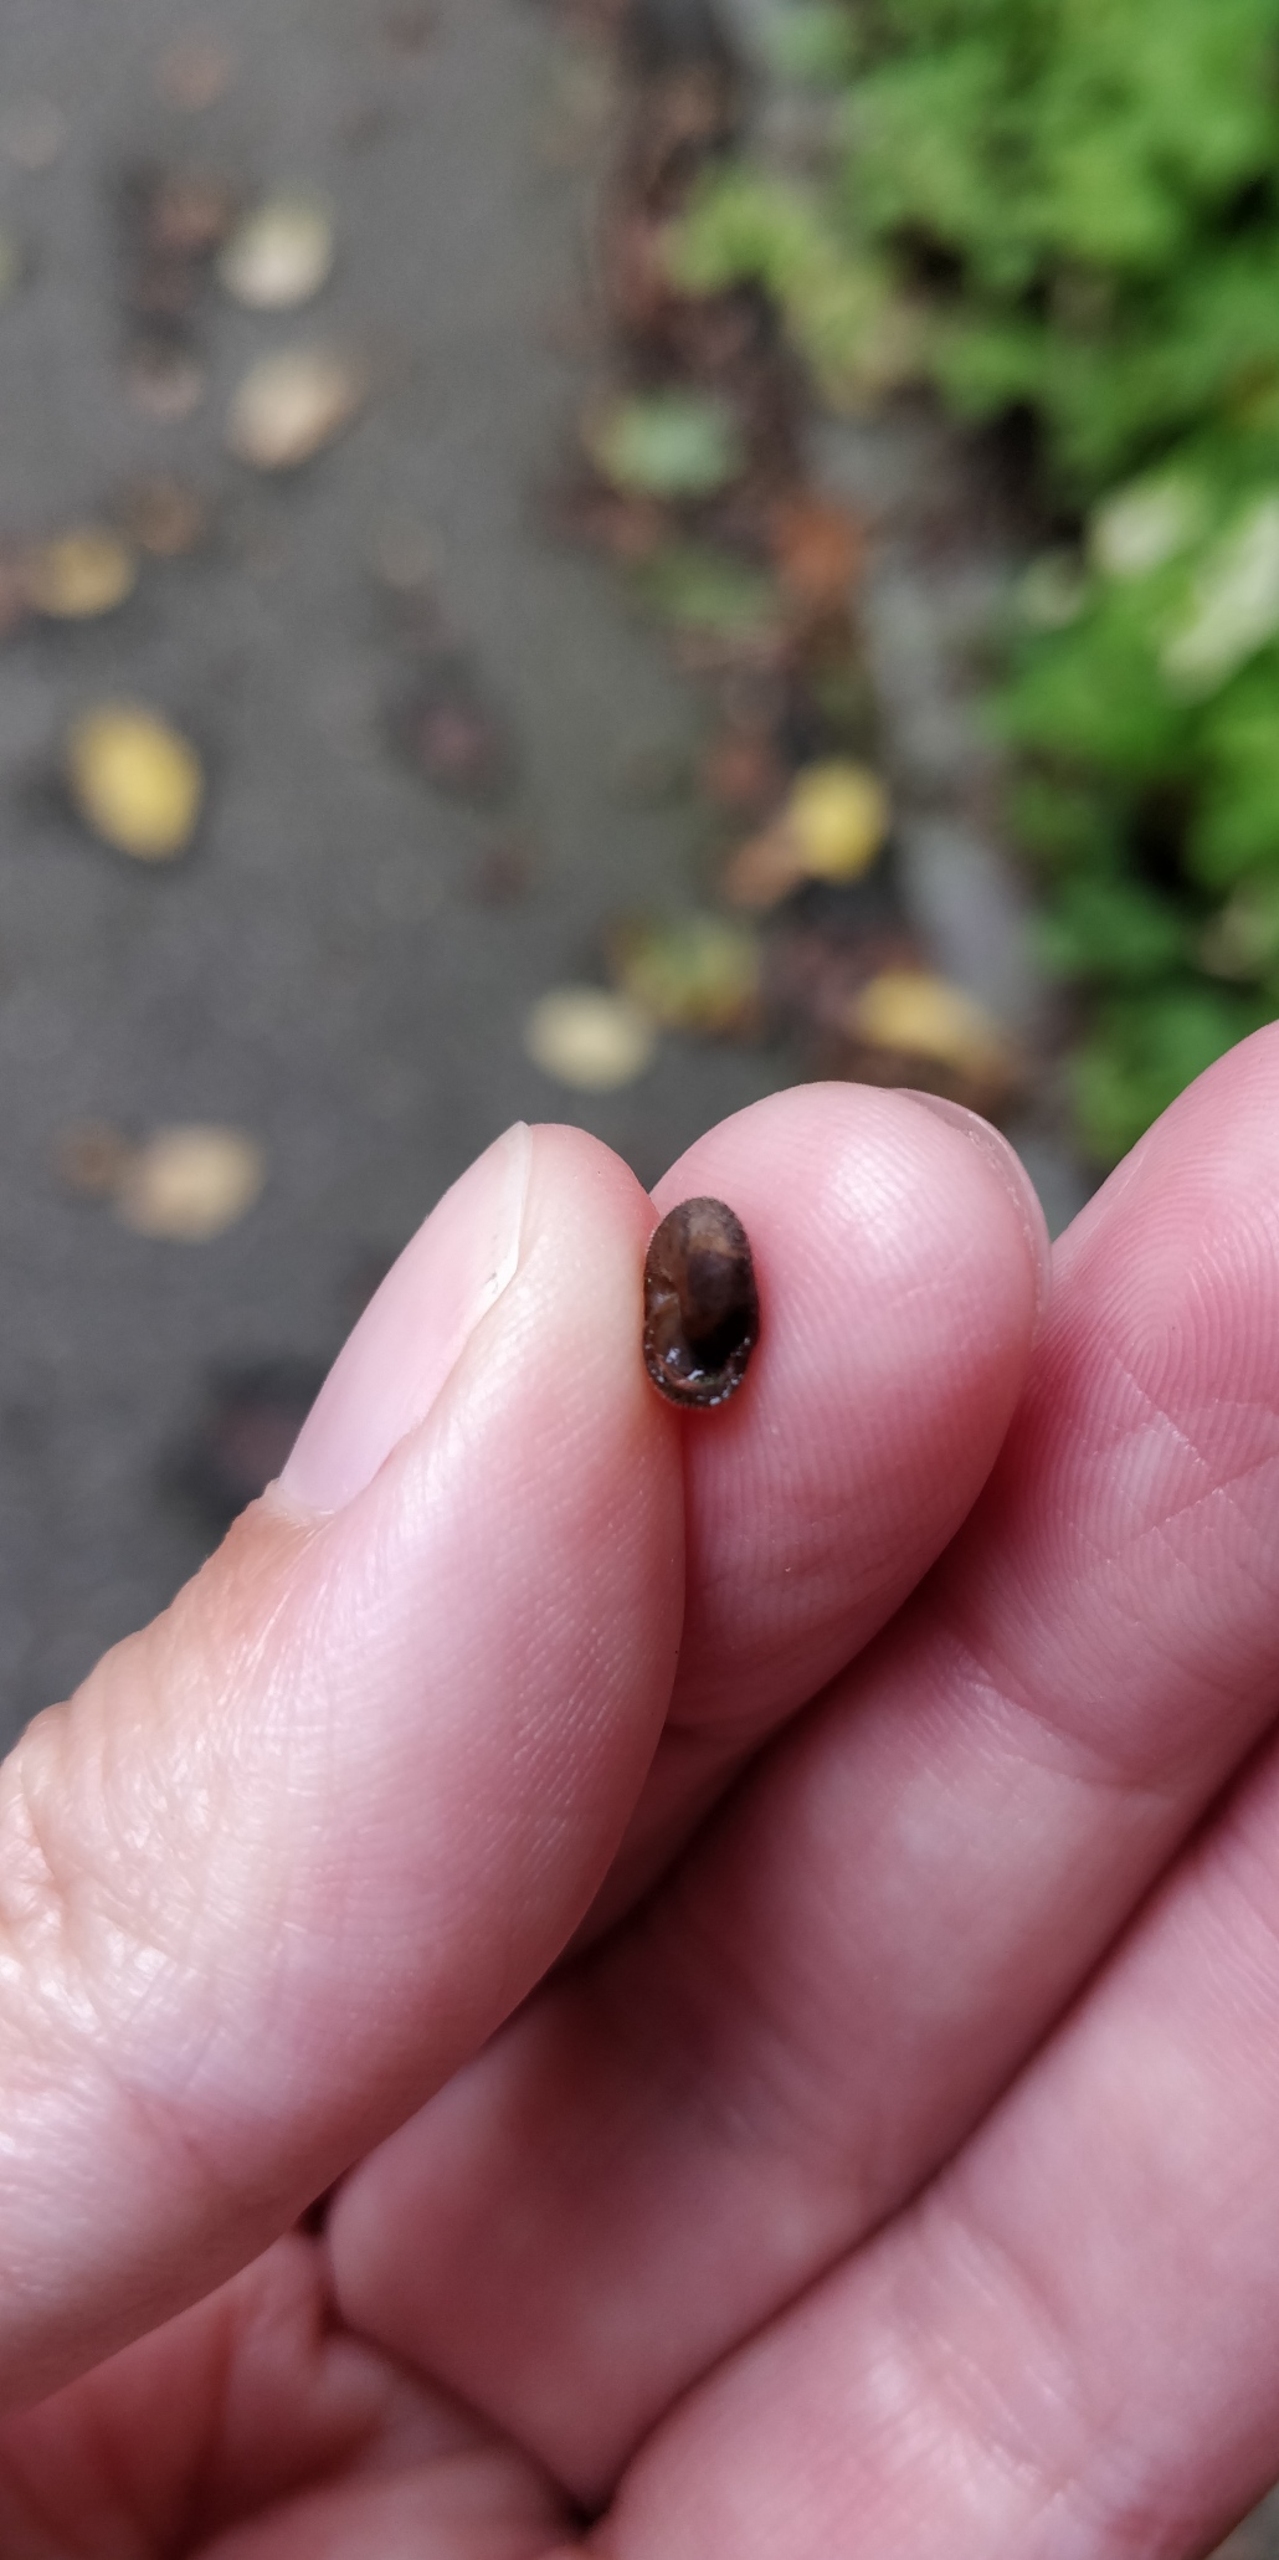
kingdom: Animalia
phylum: Mollusca
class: Gastropoda
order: Stylommatophora
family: Hygromiidae
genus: Trochulus
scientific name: Trochulus hispidus
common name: Håret snegl
